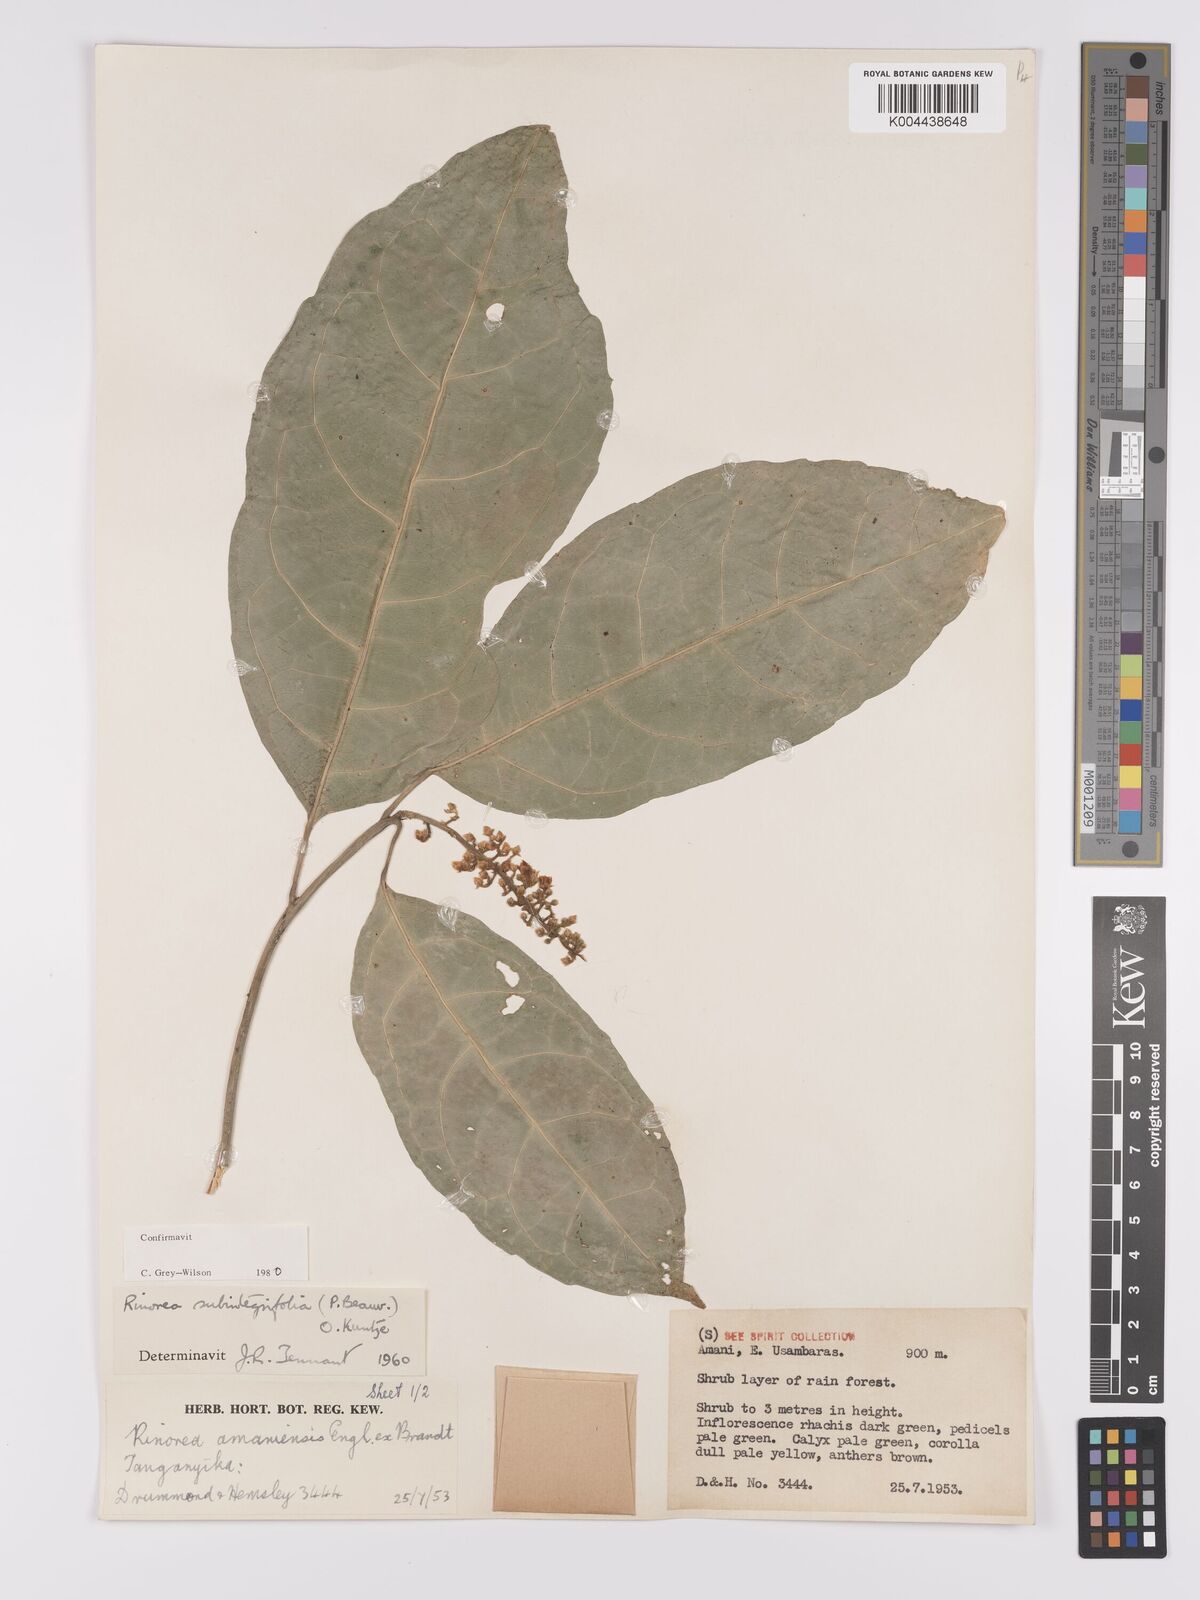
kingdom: Plantae
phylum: Tracheophyta
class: Magnoliopsida
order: Apiales
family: Pittosporaceae
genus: Marianthus
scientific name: Marianthus coeruleopunctatus
